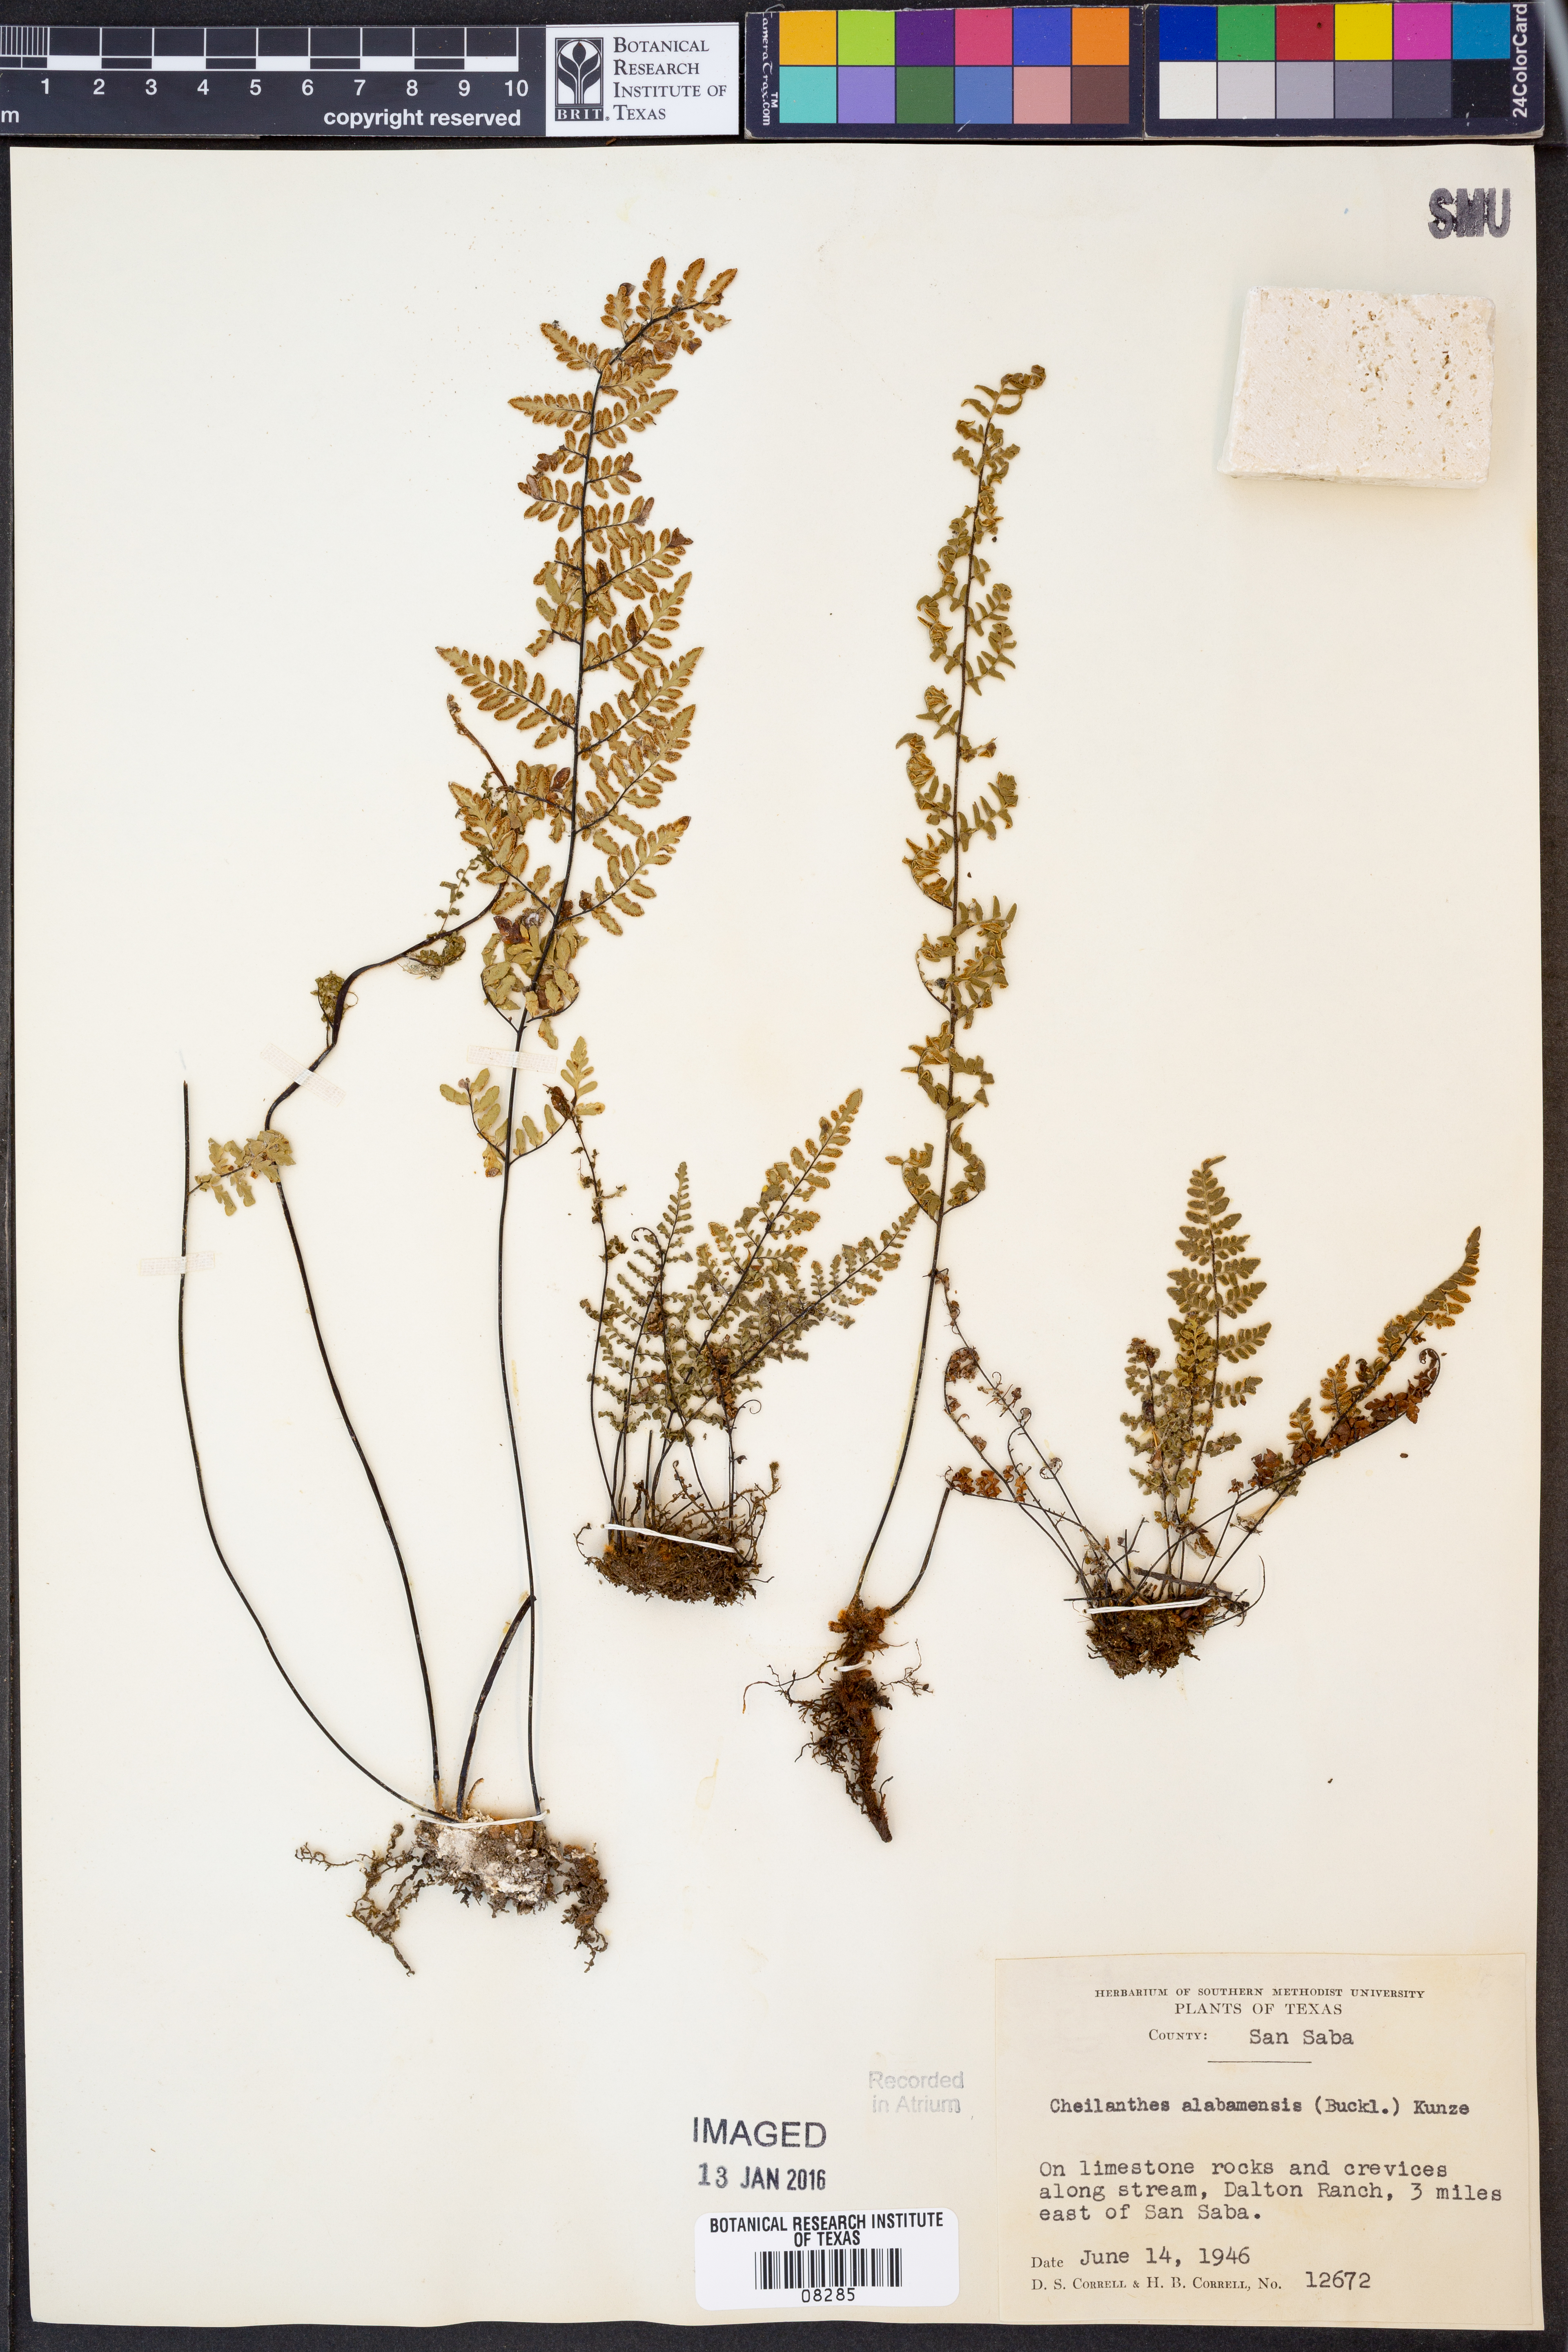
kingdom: Plantae
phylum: Tracheophyta
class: Polypodiopsida
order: Polypodiales
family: Pteridaceae
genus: Myriopteris
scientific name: Myriopteris alabamensis
